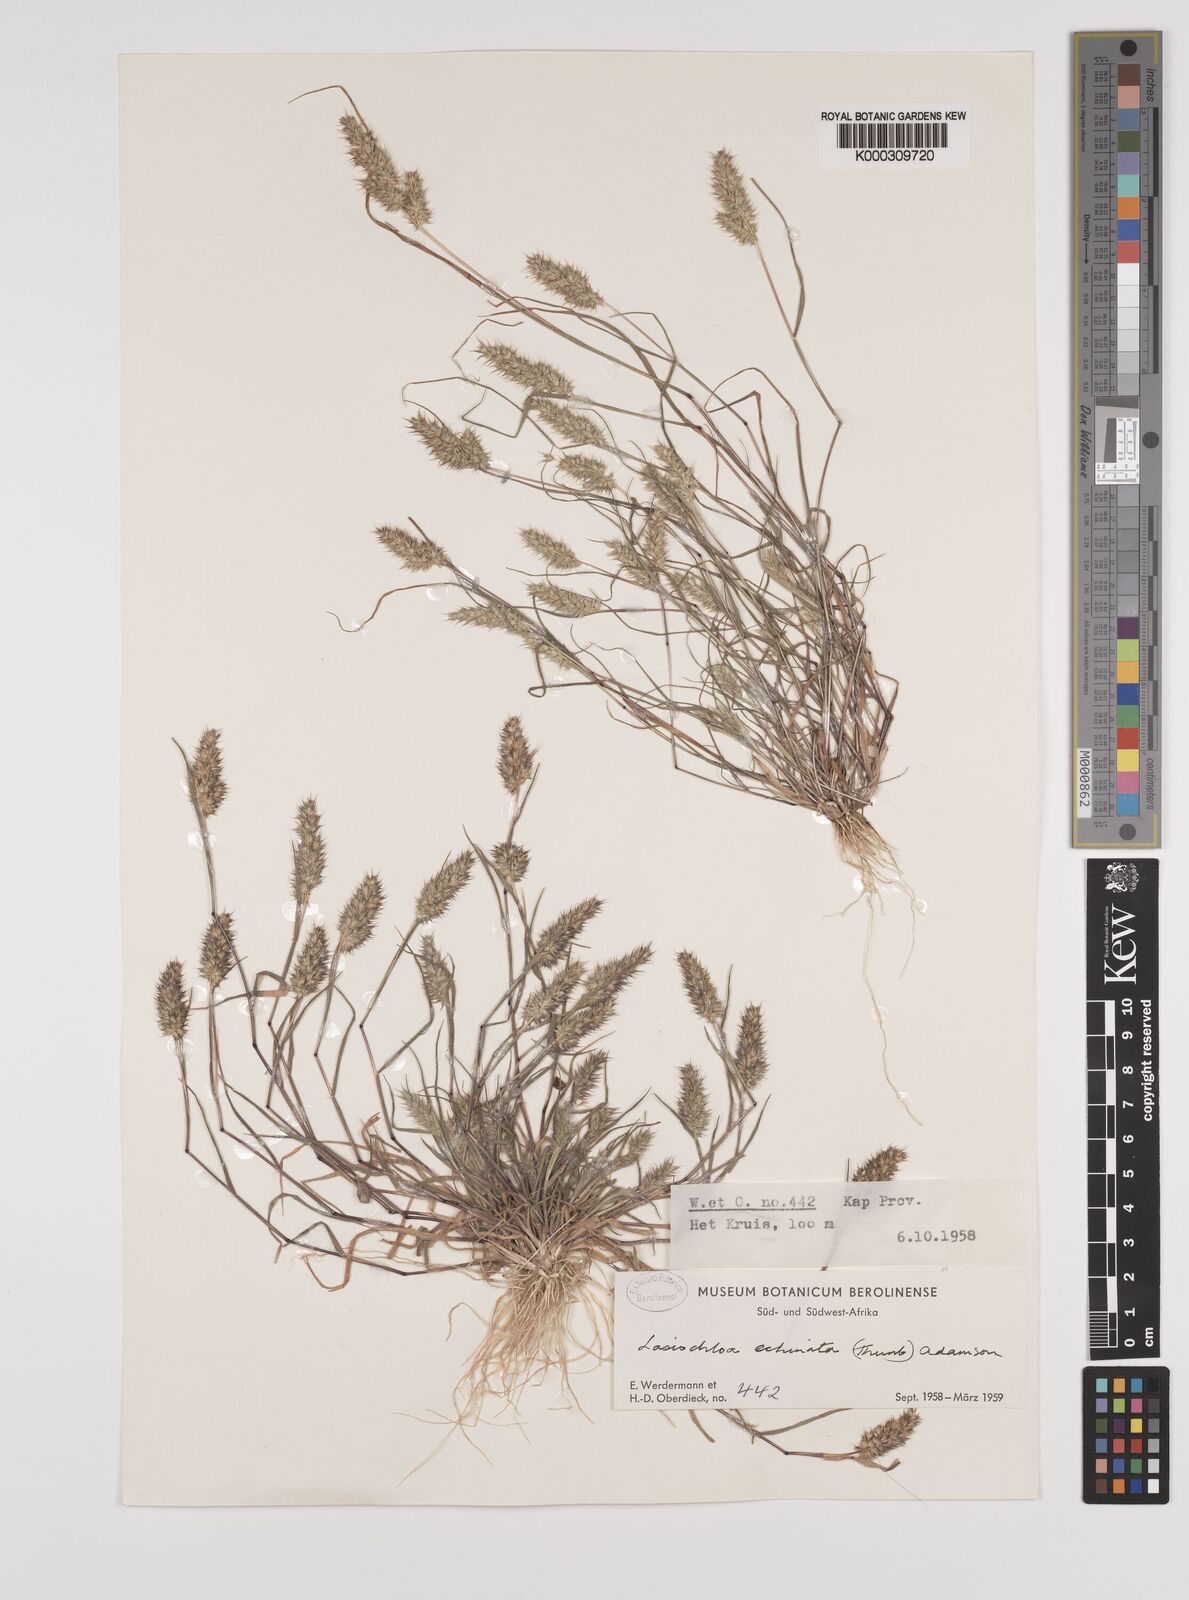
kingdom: Plantae
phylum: Tracheophyta
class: Liliopsida
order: Poales
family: Poaceae
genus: Tribolium
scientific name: Tribolium echinatum
